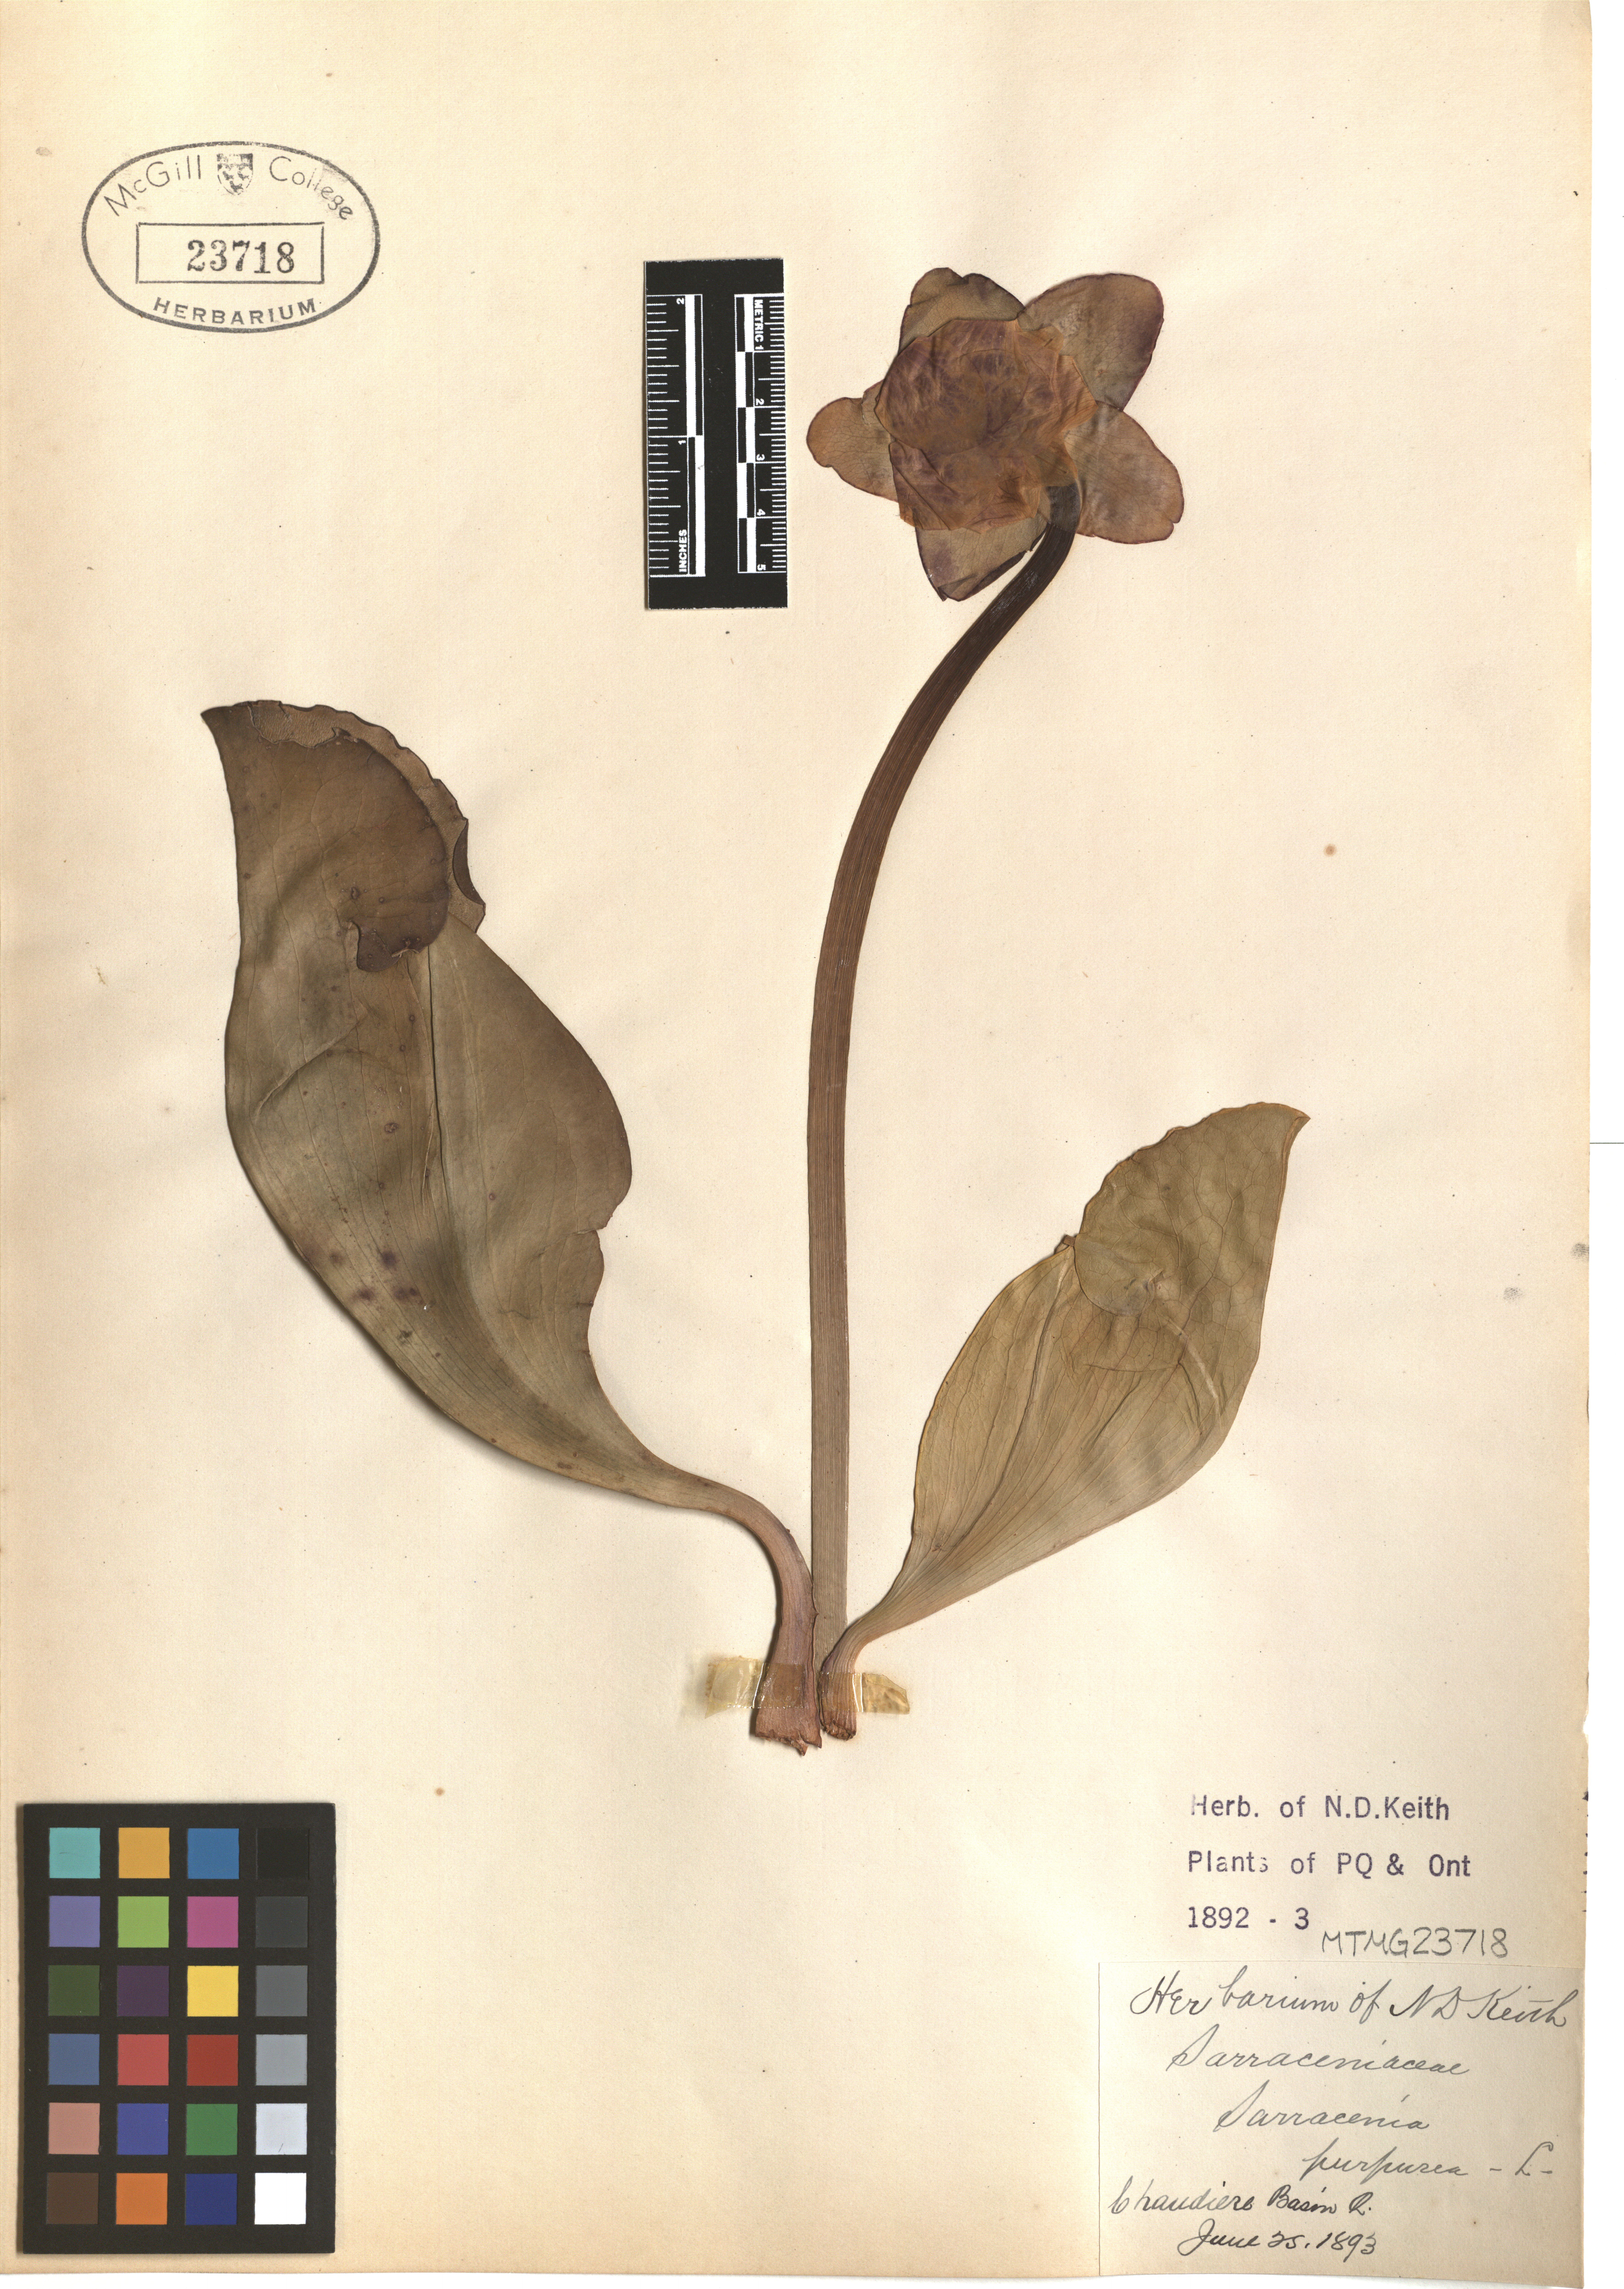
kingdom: Plantae
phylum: Tracheophyta
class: Magnoliopsida
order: Ericales
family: Sarraceniaceae
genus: Sarracenia
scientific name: Sarracenia purpurea
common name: Pitcherplant
